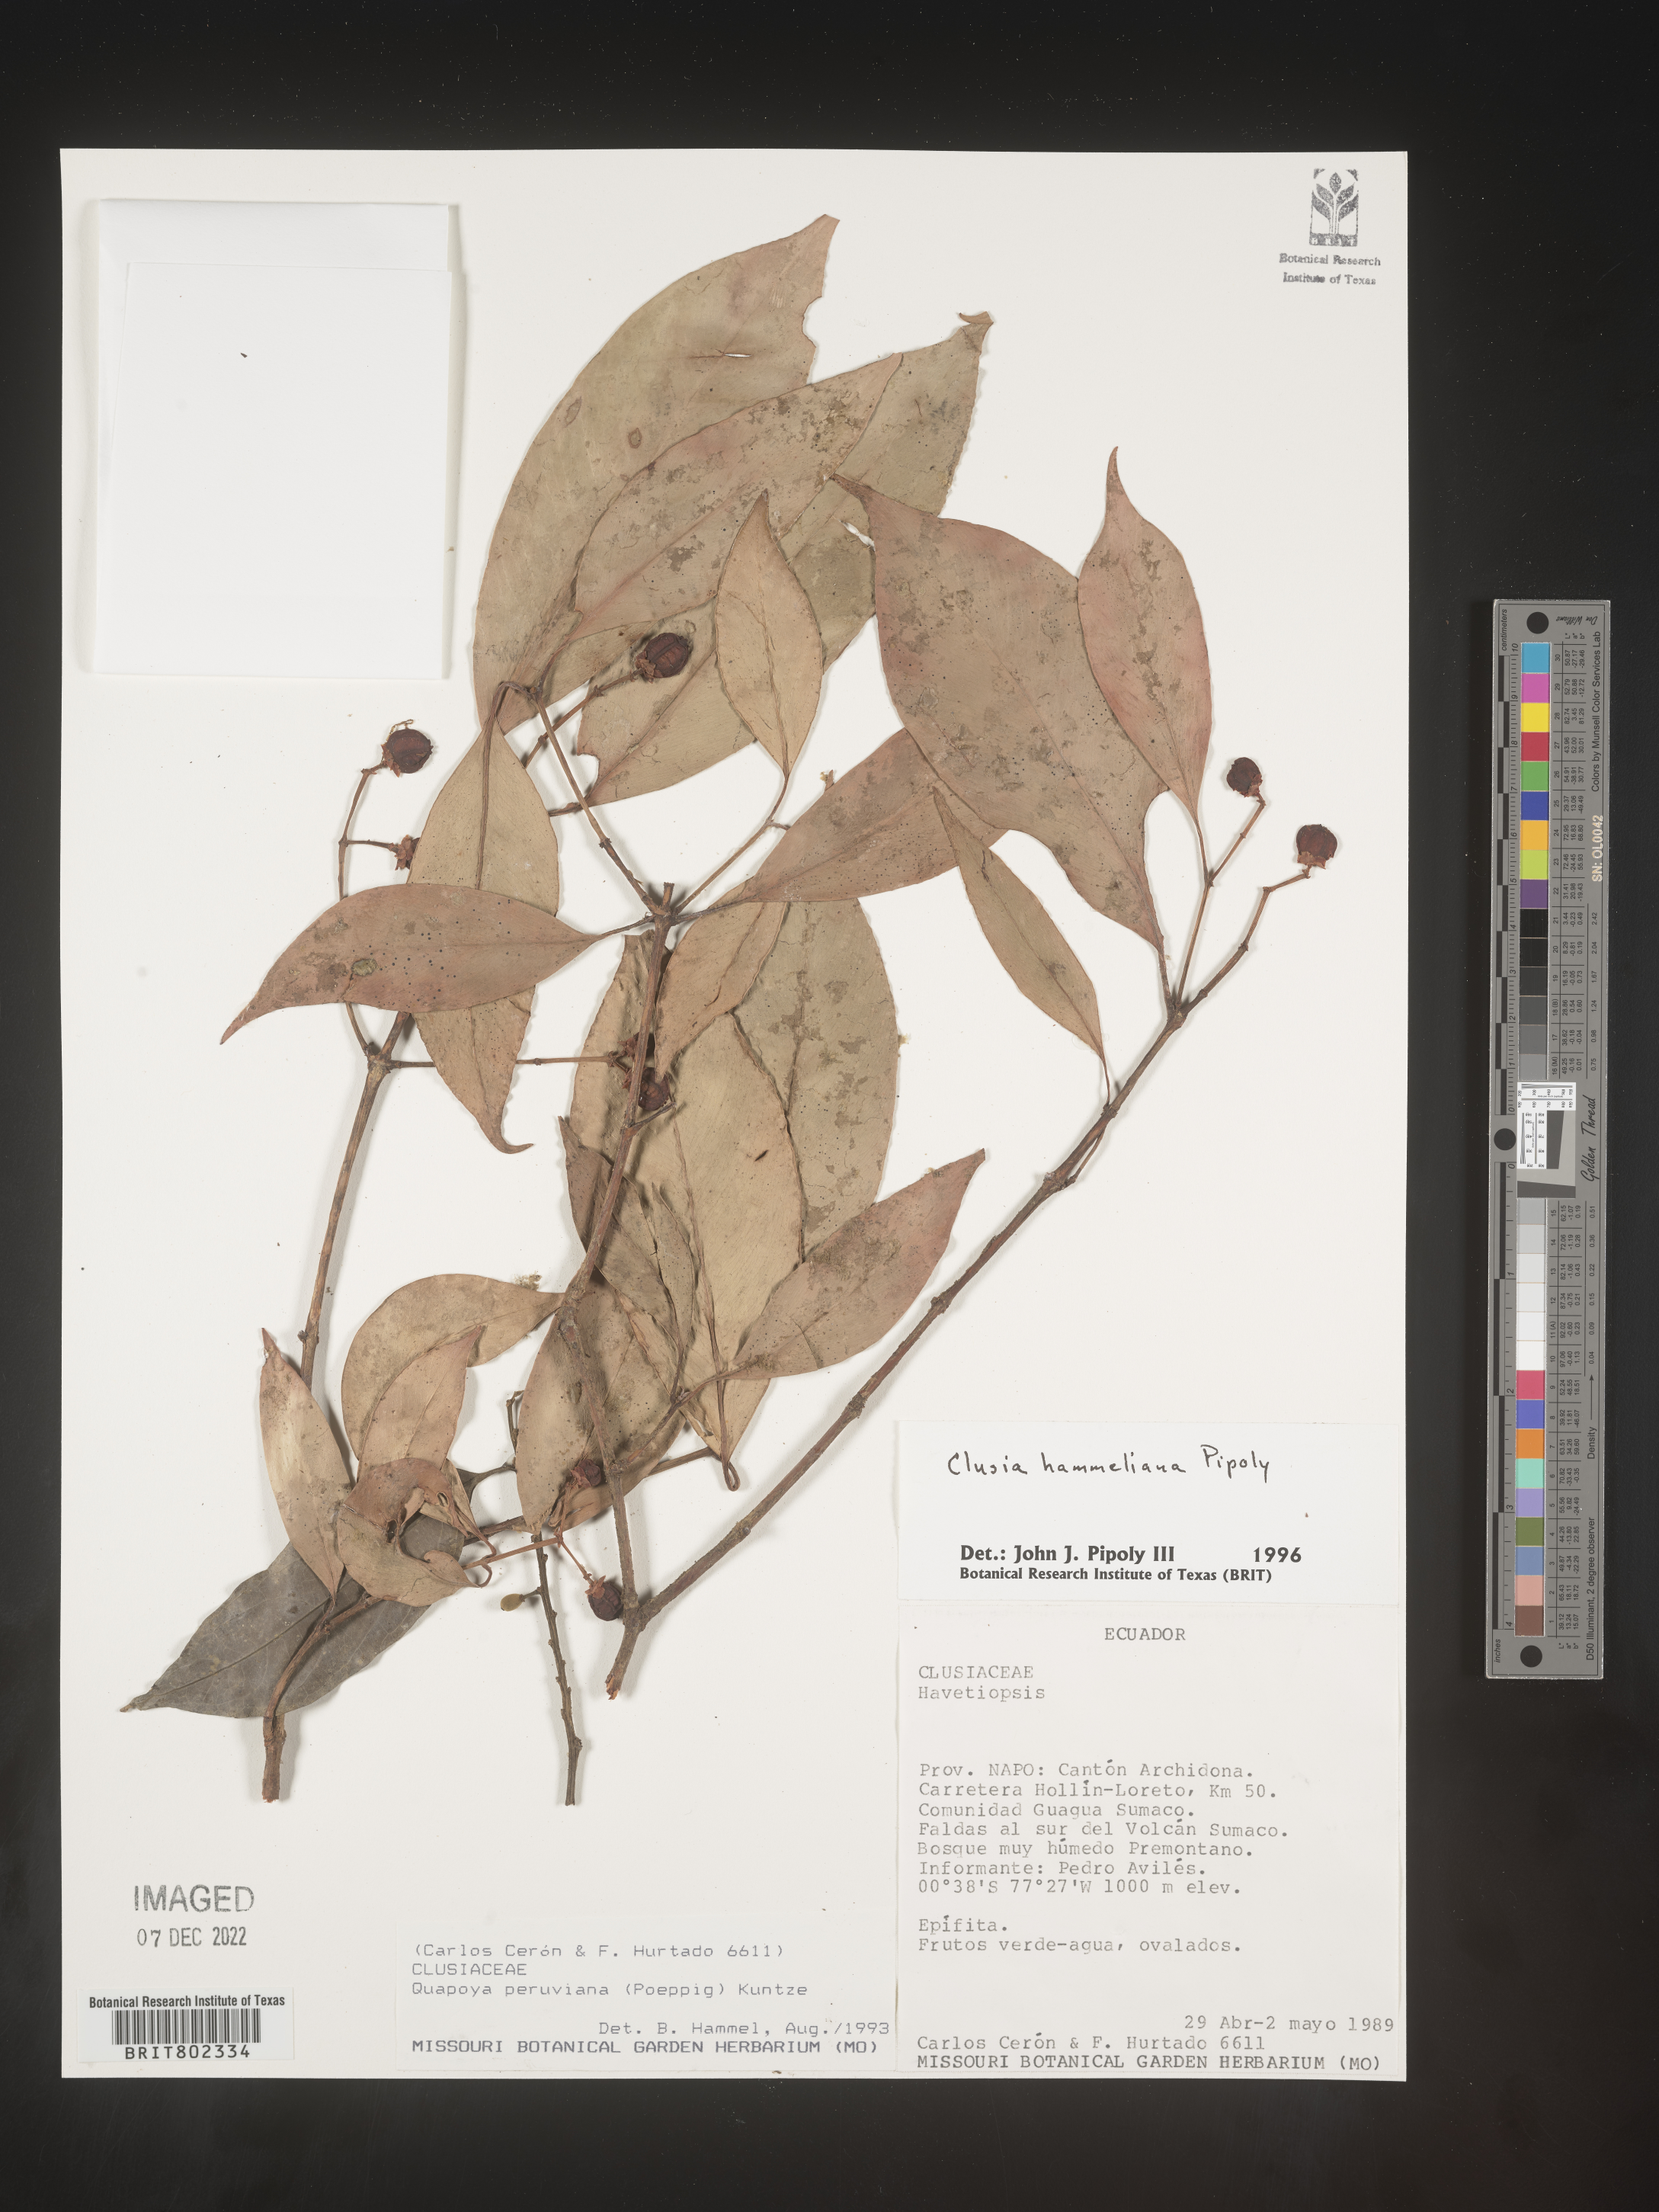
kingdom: Plantae
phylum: Tracheophyta
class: Magnoliopsida
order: Malpighiales
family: Clusiaceae
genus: Clusia
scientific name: Clusia hammeliana
